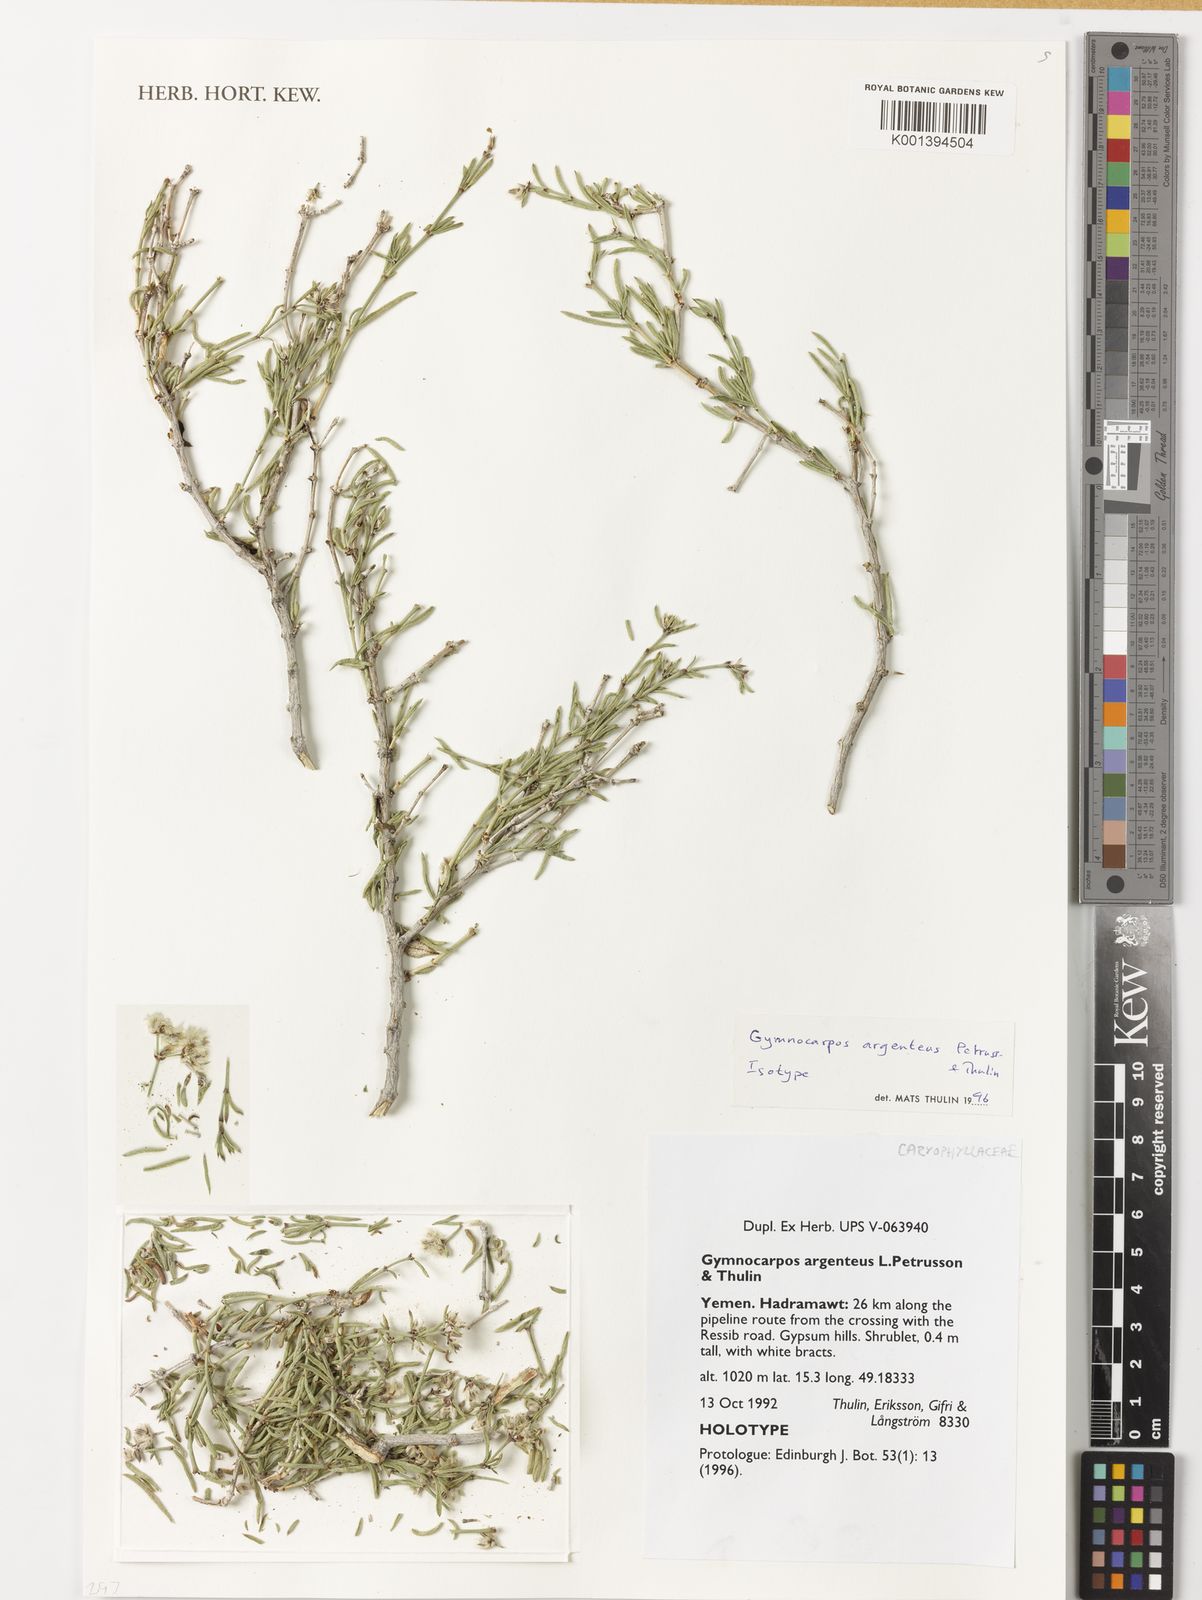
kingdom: Plantae
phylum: Tracheophyta
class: Magnoliopsida
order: Caryophyllales
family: Caryophyllaceae
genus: Gymnocarpos
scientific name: Gymnocarpos argenteus
